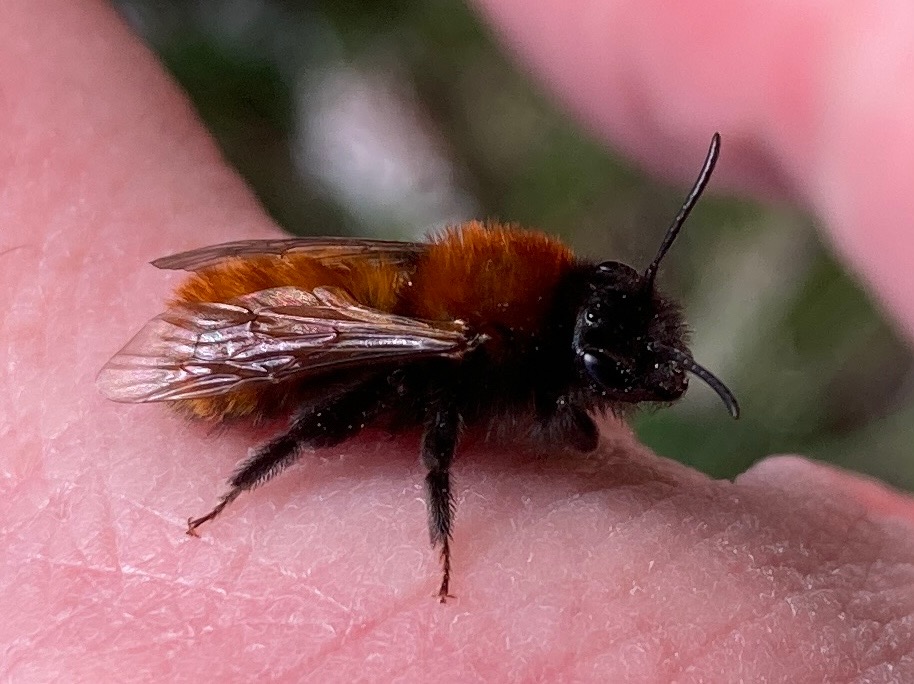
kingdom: Animalia
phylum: Arthropoda
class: Insecta
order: Hymenoptera
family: Andrenidae
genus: Andrena
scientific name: Andrena fulva
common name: Rødpelset jordbi
